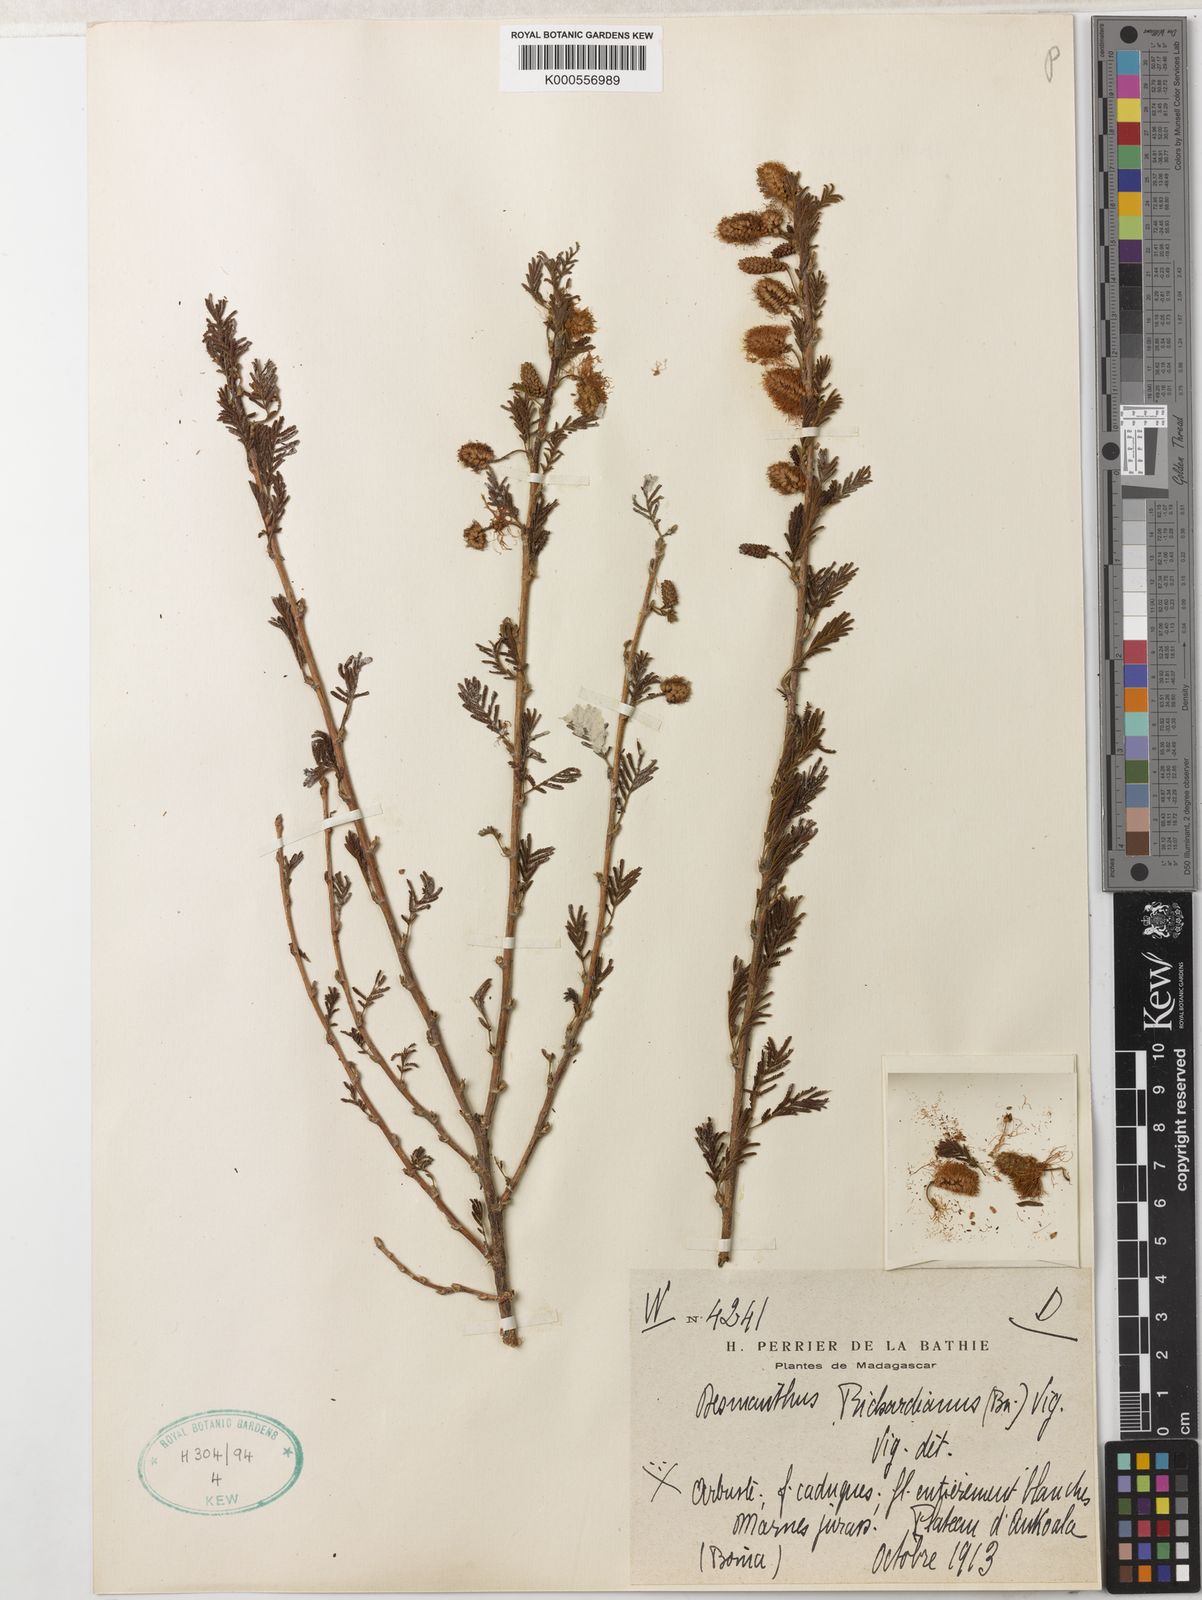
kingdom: Plantae
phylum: Tracheophyta
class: Magnoliopsida
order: Fabales
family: Fabaceae
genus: Dichrostachys
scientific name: Dichrostachys richardiana
